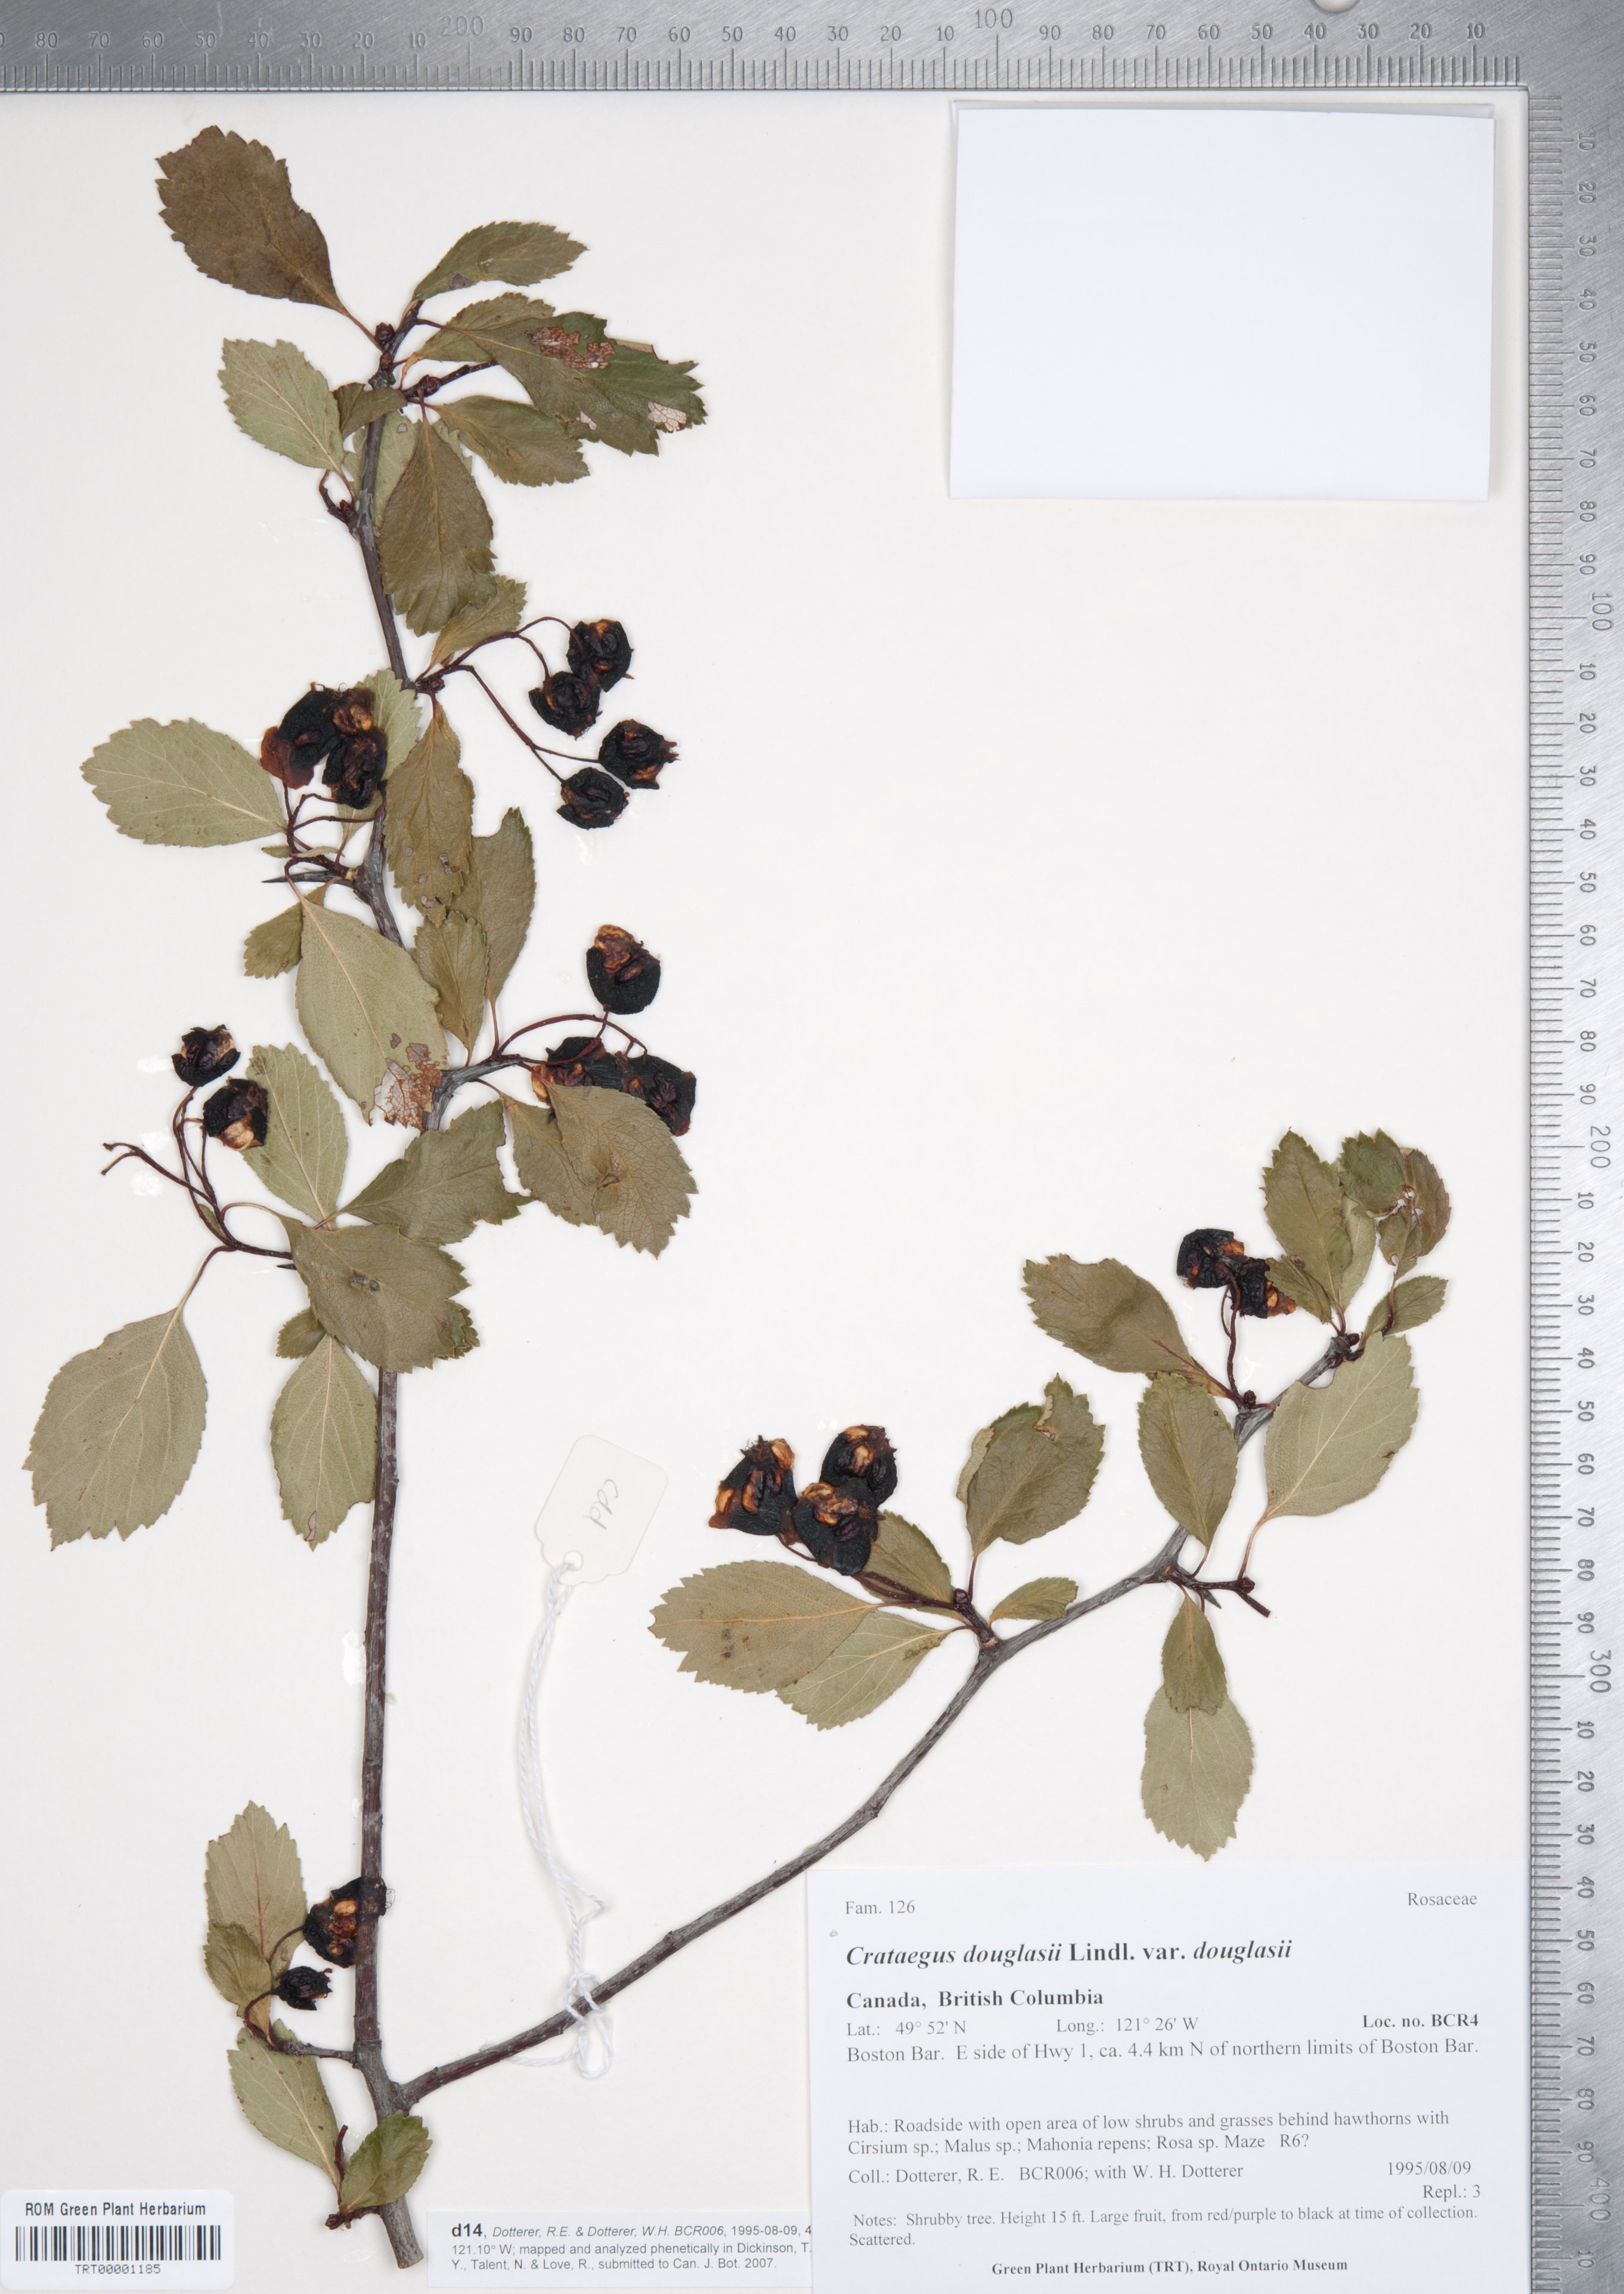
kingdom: Plantae
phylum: Tracheophyta
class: Magnoliopsida
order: Rosales
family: Rosaceae
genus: Crataegus
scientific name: Crataegus douglasii
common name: Black hawthorn
